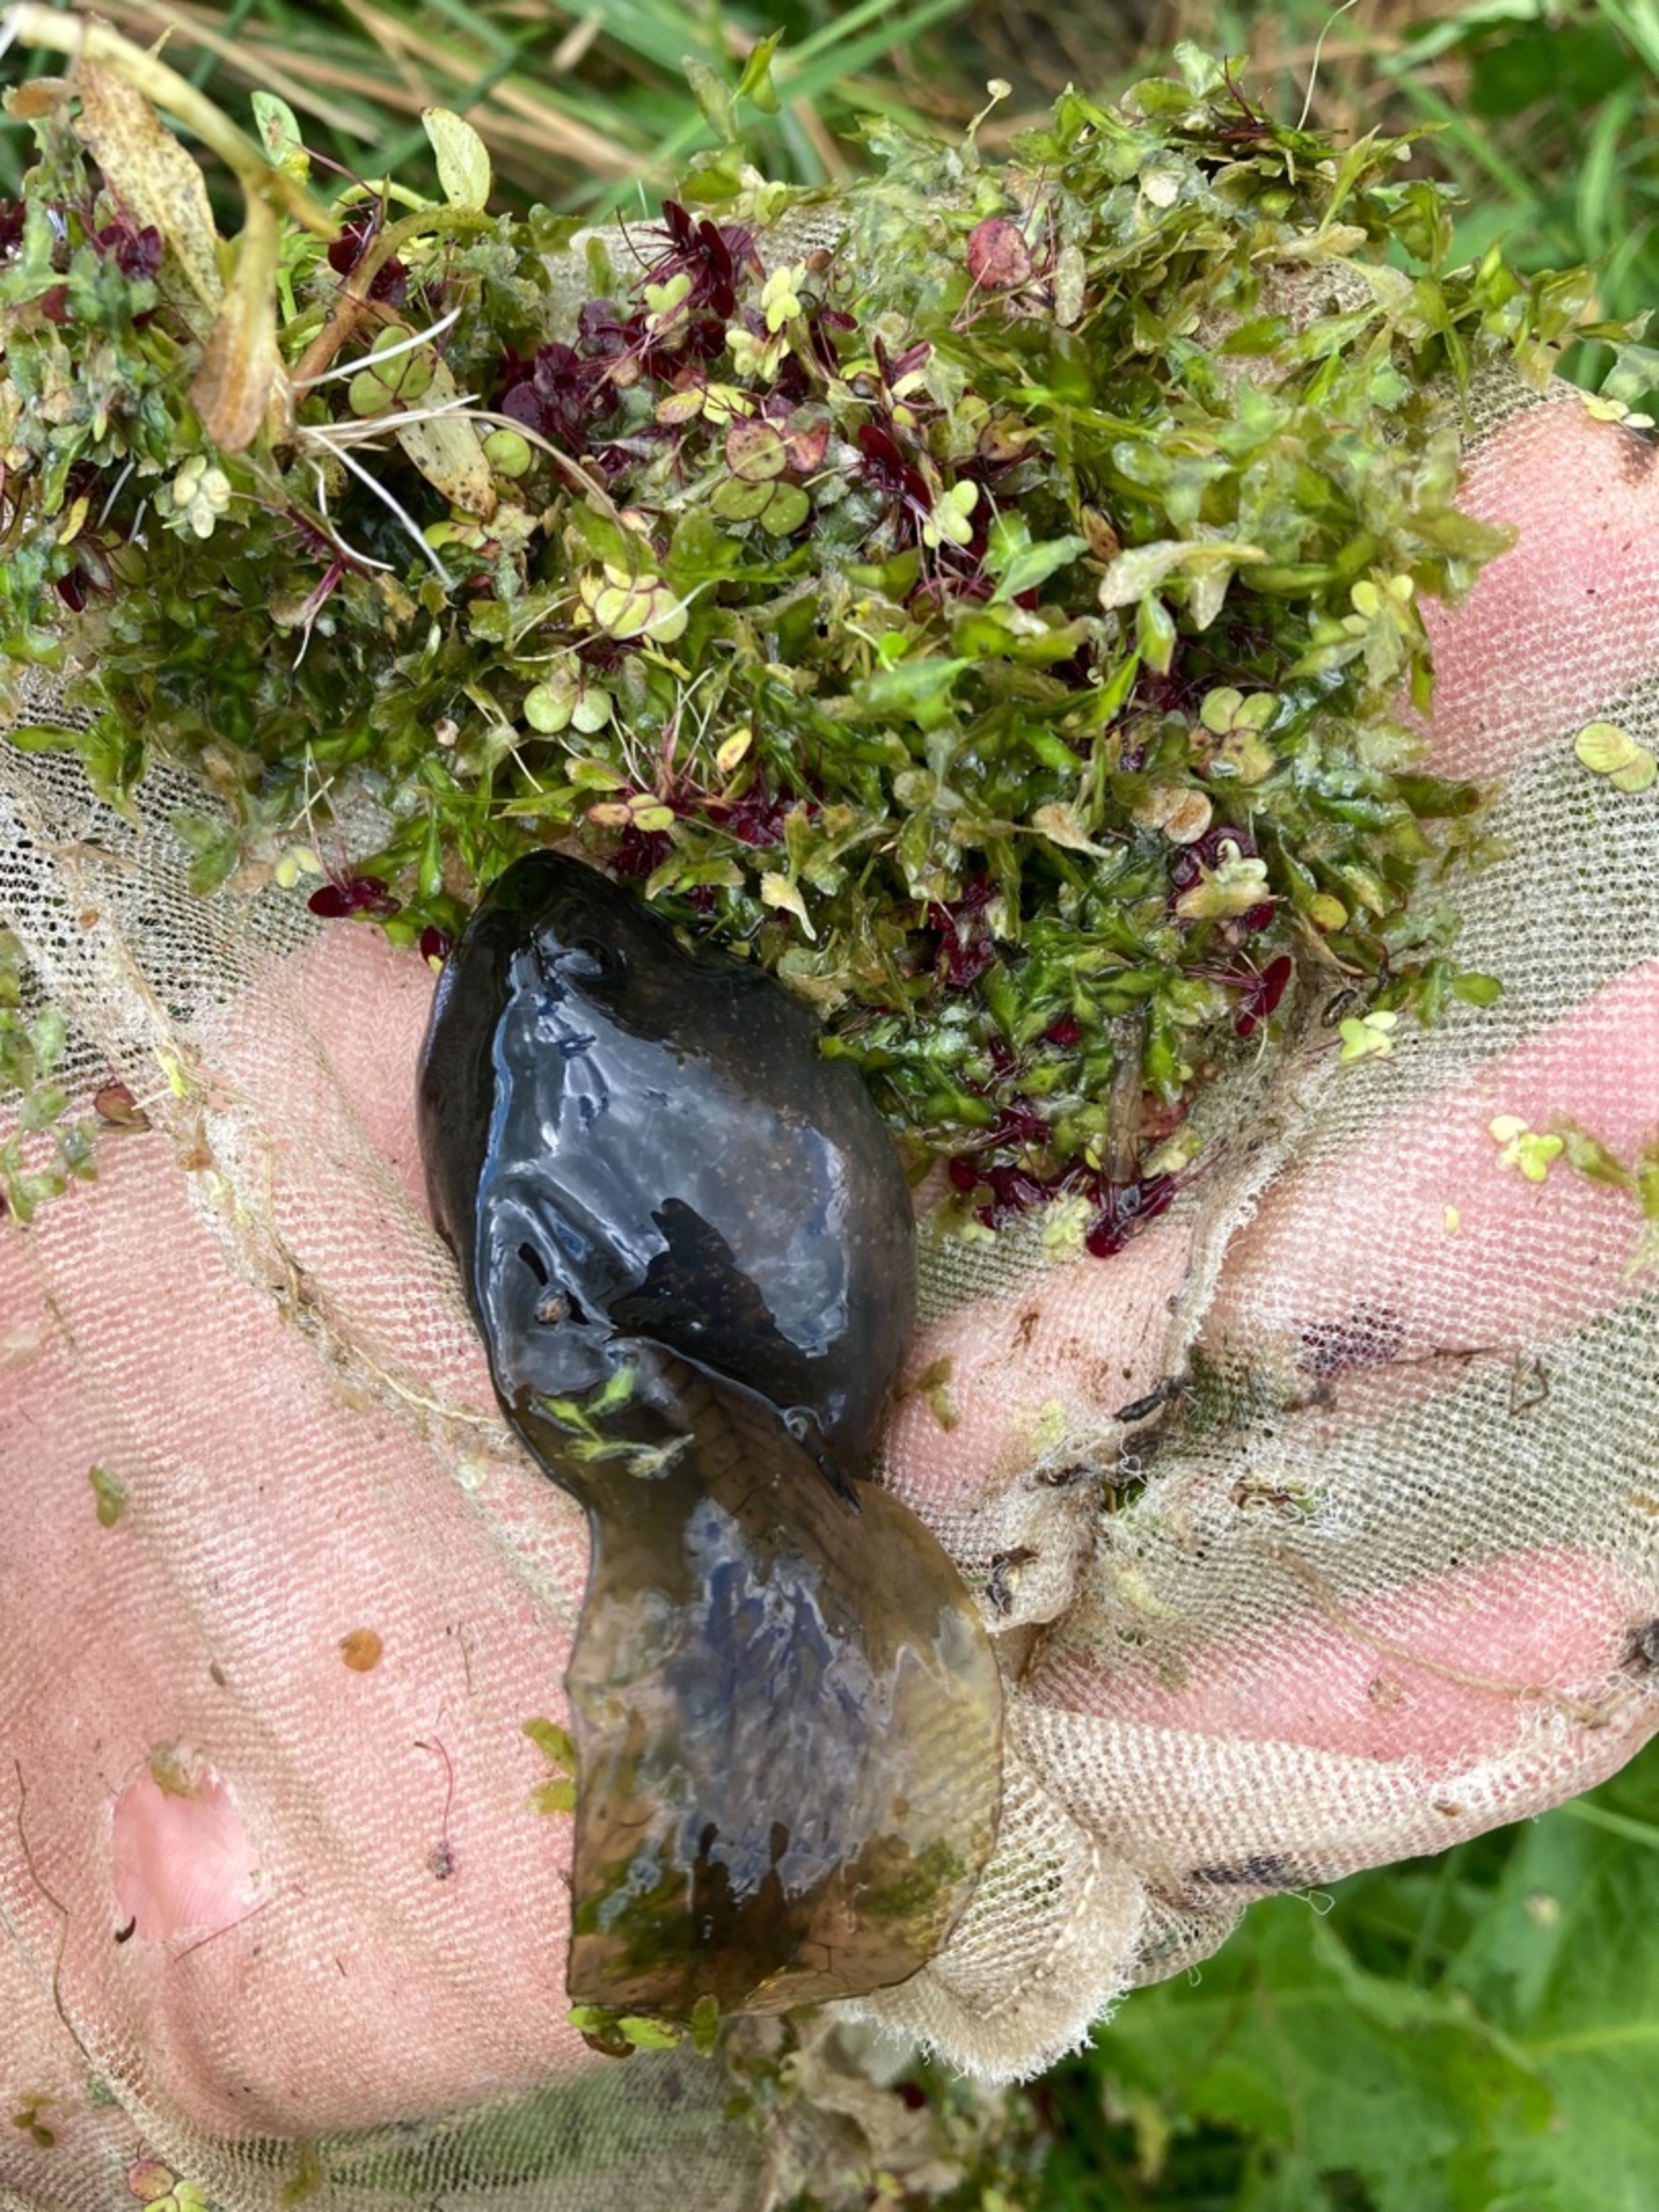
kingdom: Animalia
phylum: Chordata
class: Amphibia
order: Anura
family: Pelobatidae
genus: Pelobates
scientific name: Pelobates fuscus
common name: Løgfrø
